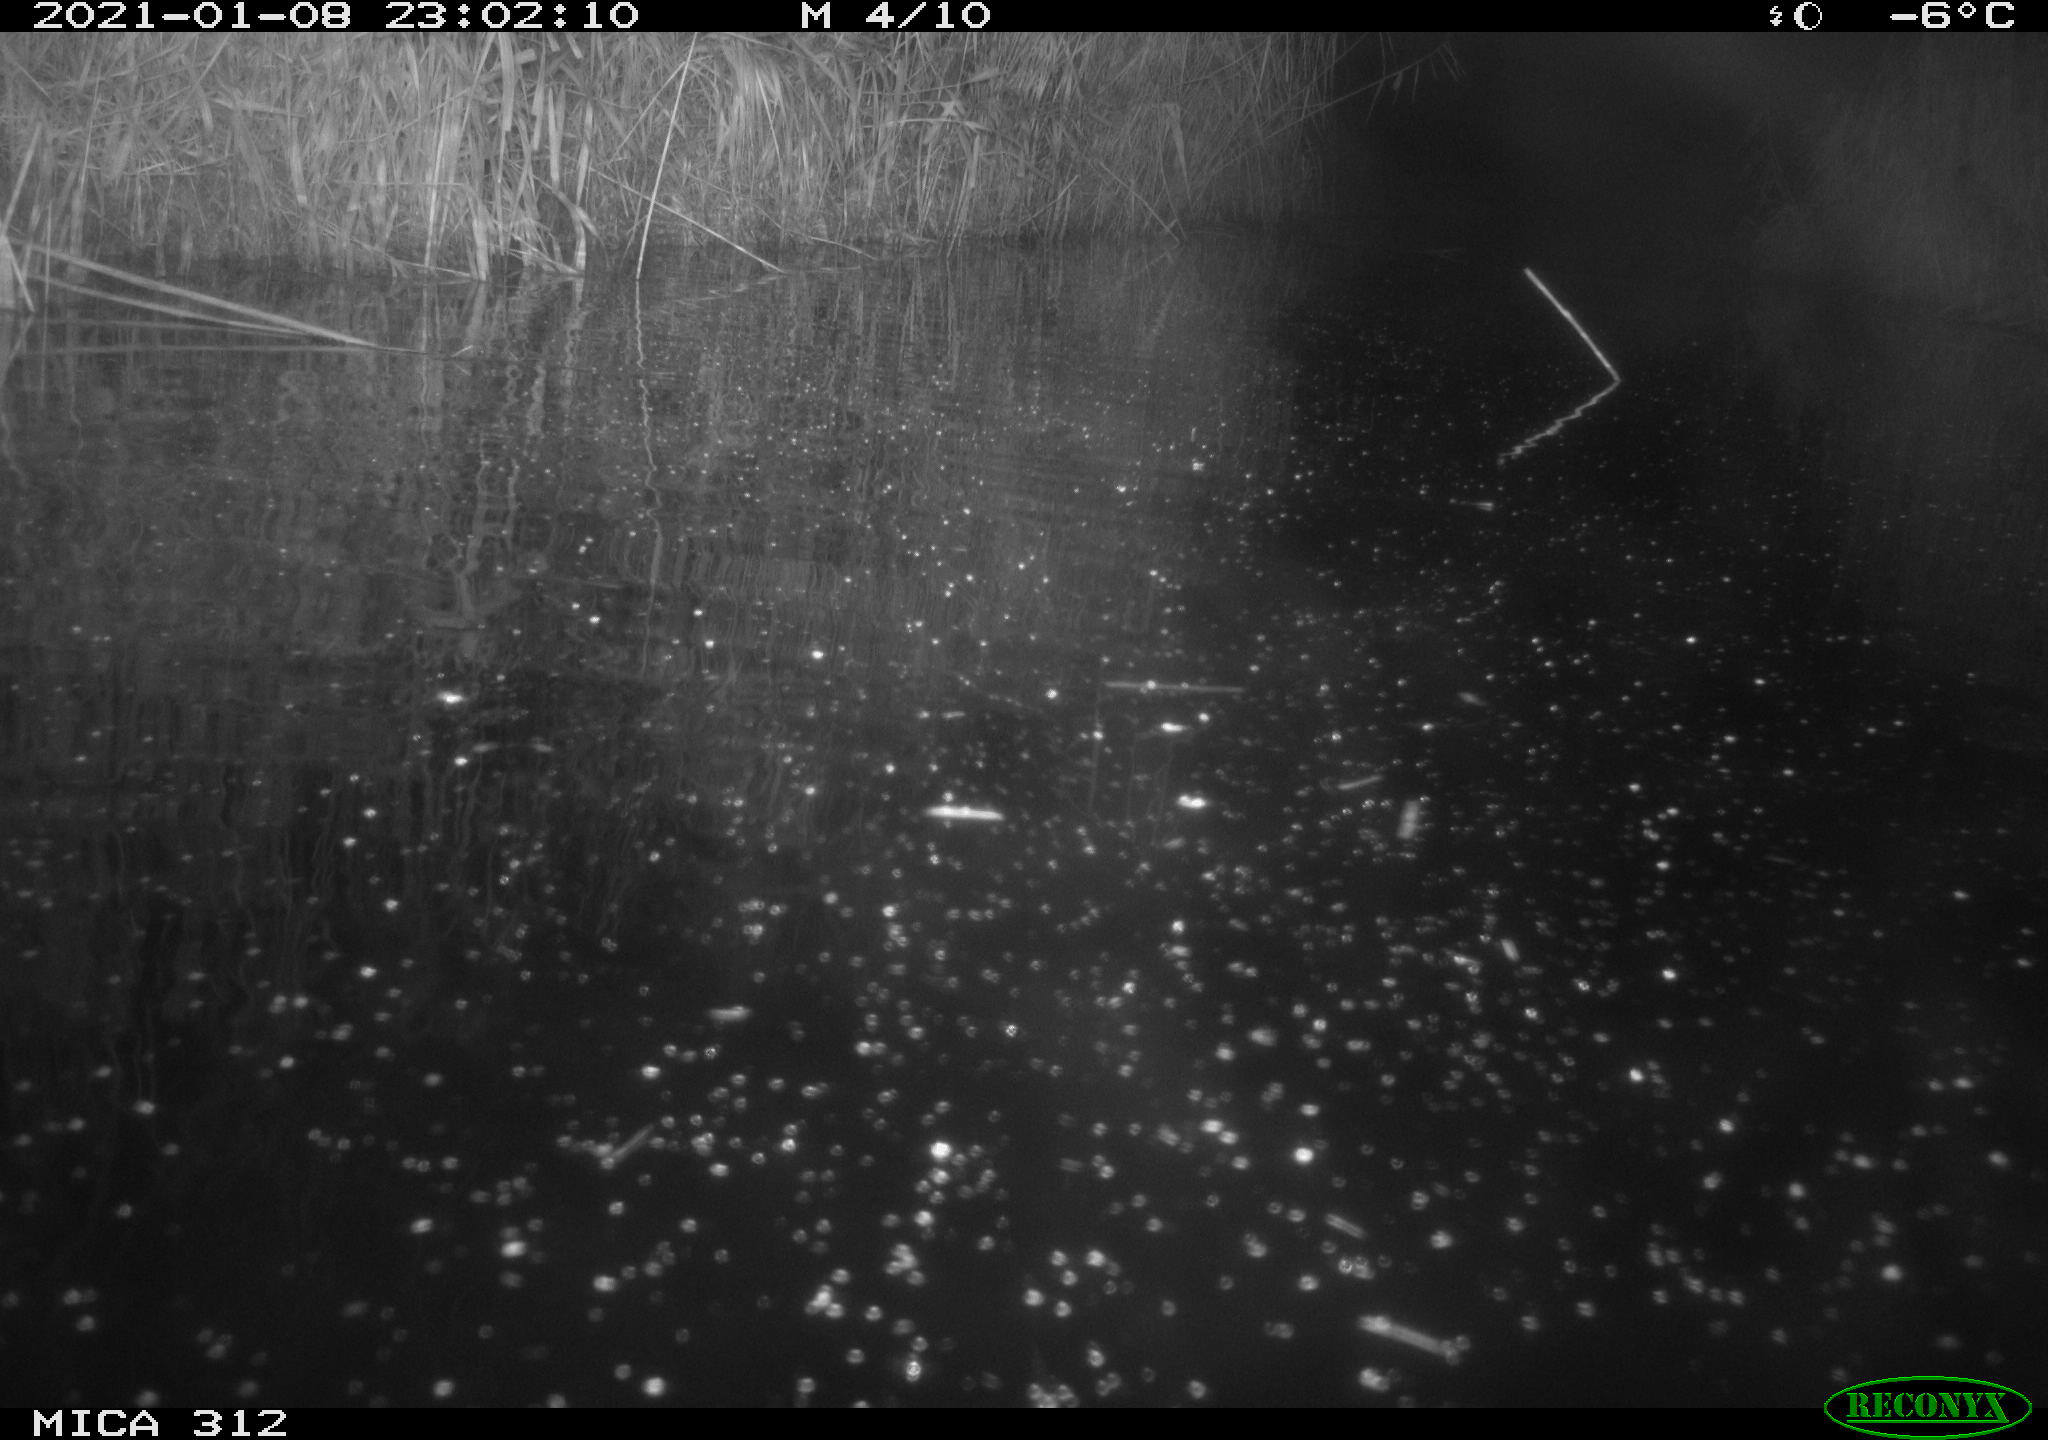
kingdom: Animalia
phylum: Chordata
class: Mammalia
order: Rodentia
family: Muridae
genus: Rattus
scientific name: Rattus norvegicus
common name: Brown rat
